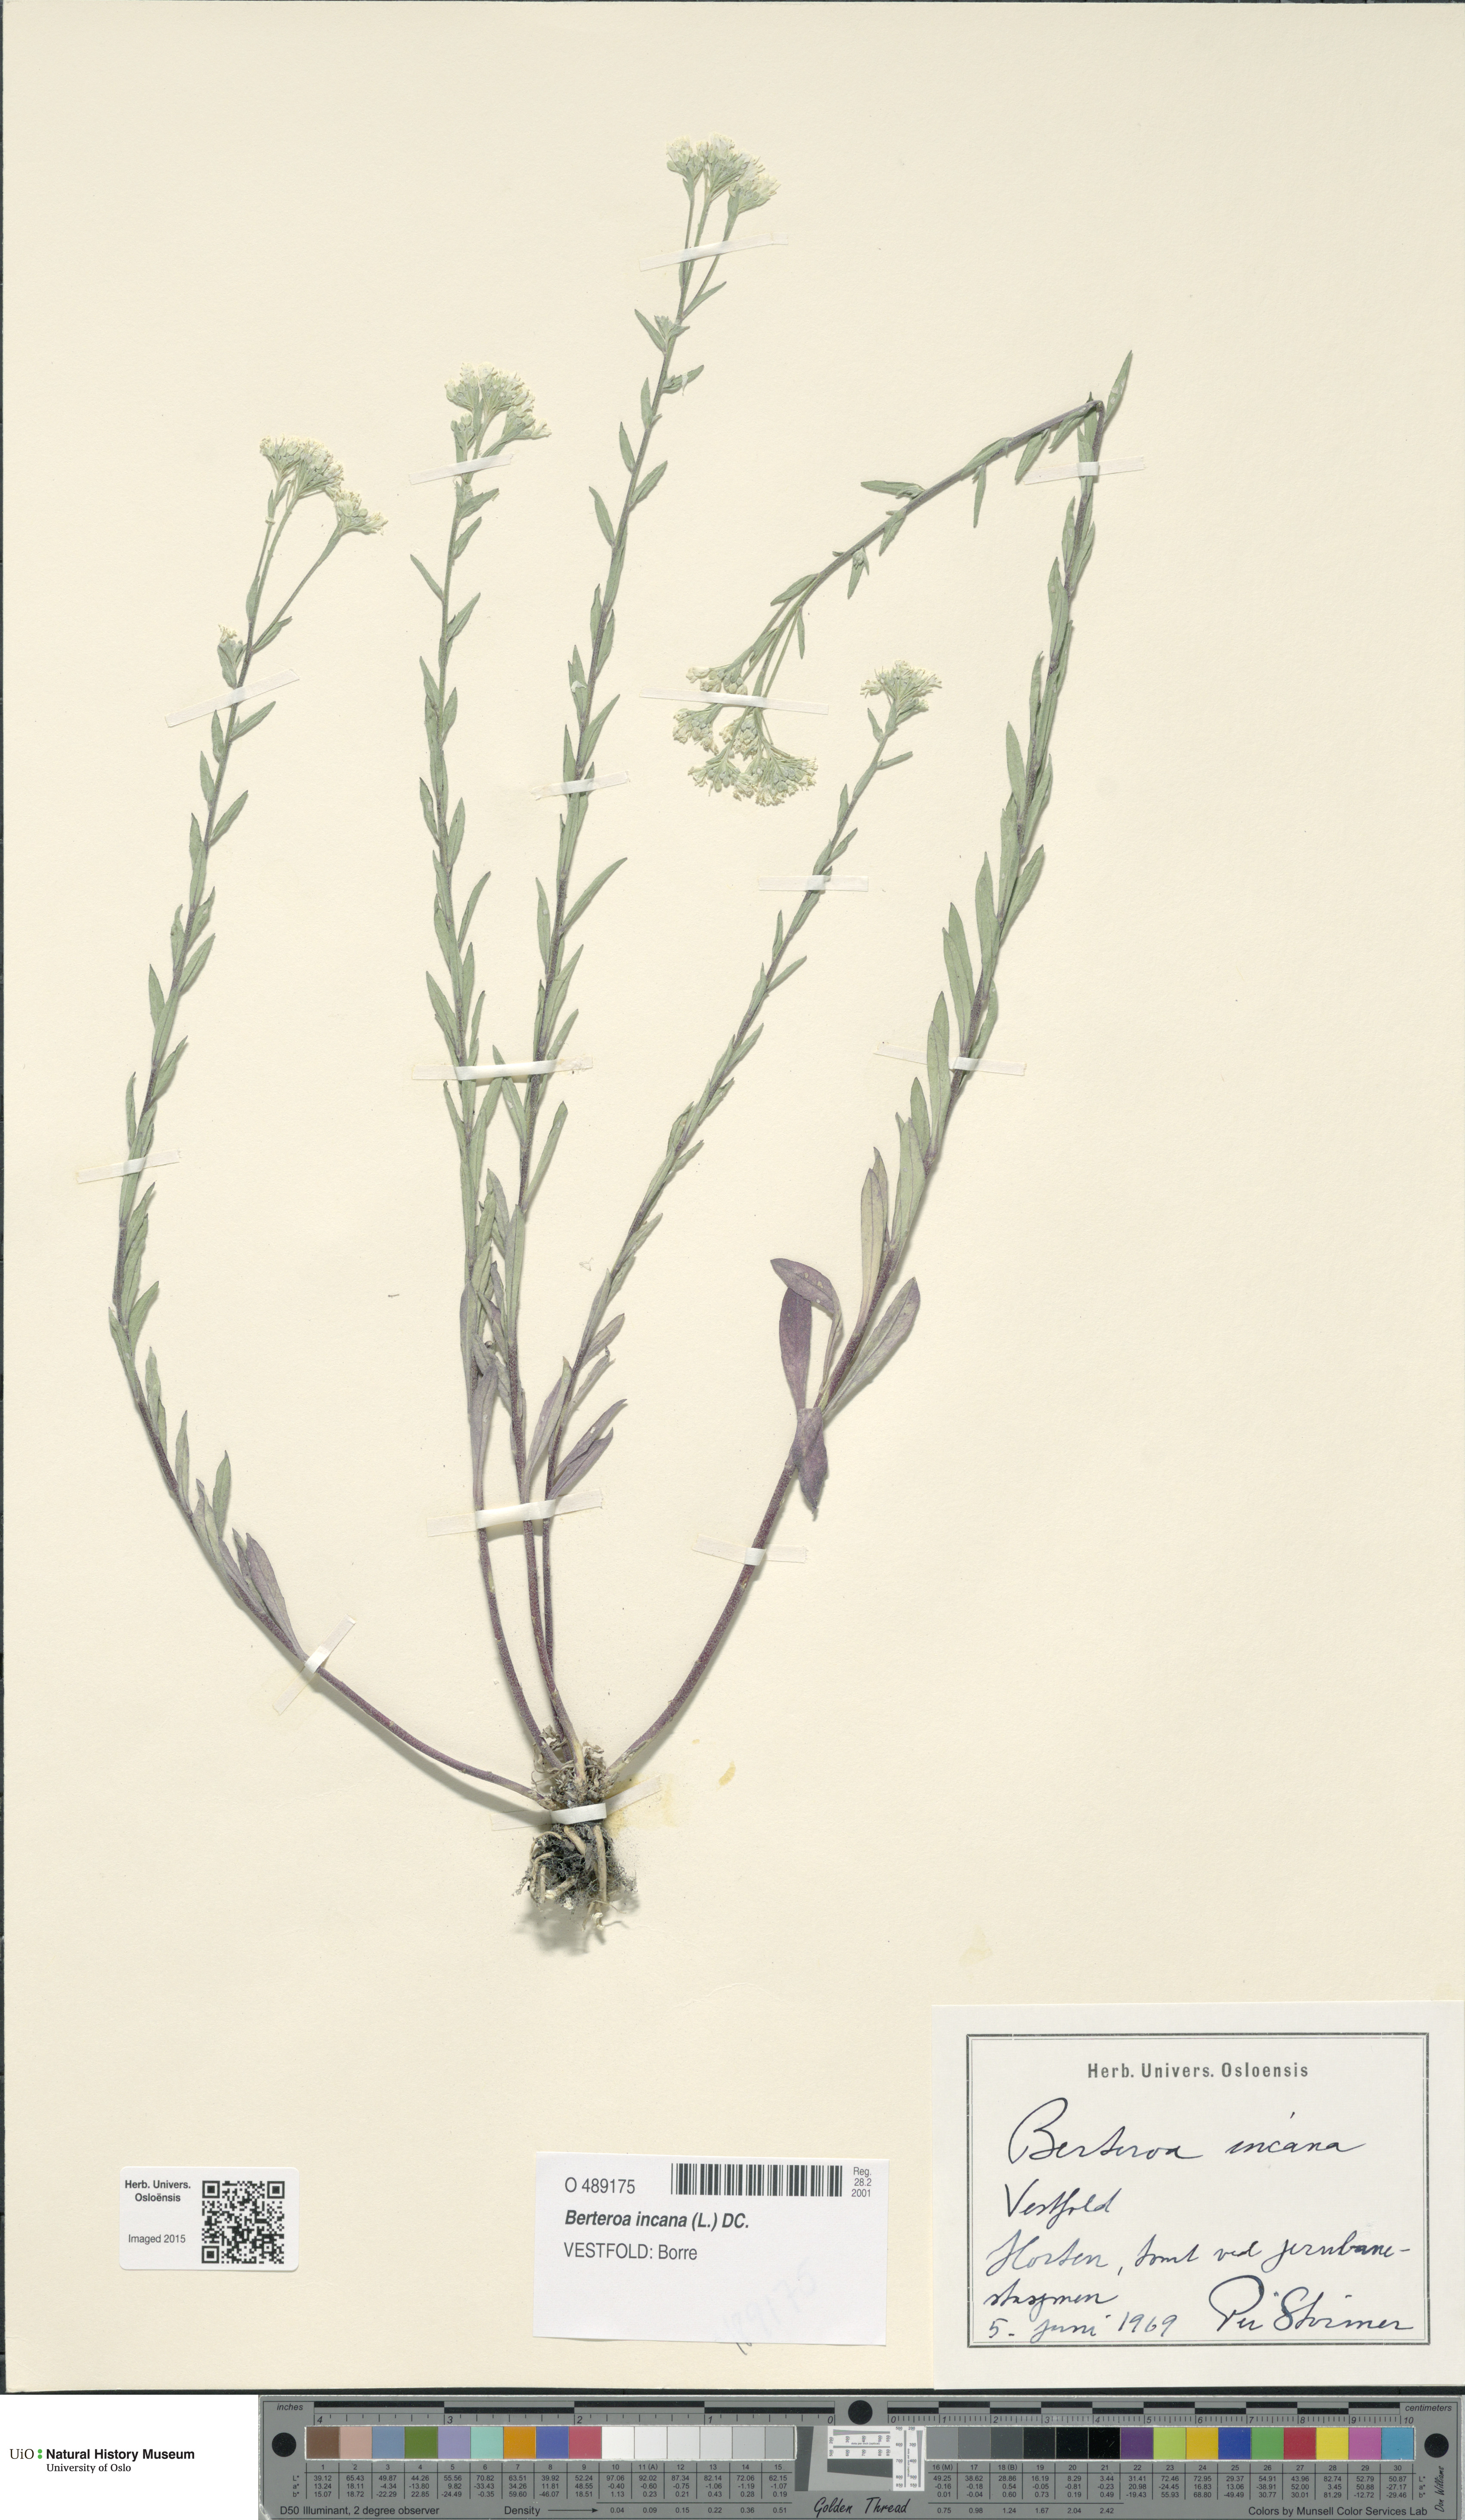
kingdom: Plantae
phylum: Tracheophyta
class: Magnoliopsida
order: Brassicales
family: Brassicaceae
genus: Berteroa
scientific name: Berteroa incana
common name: Hoary alison
